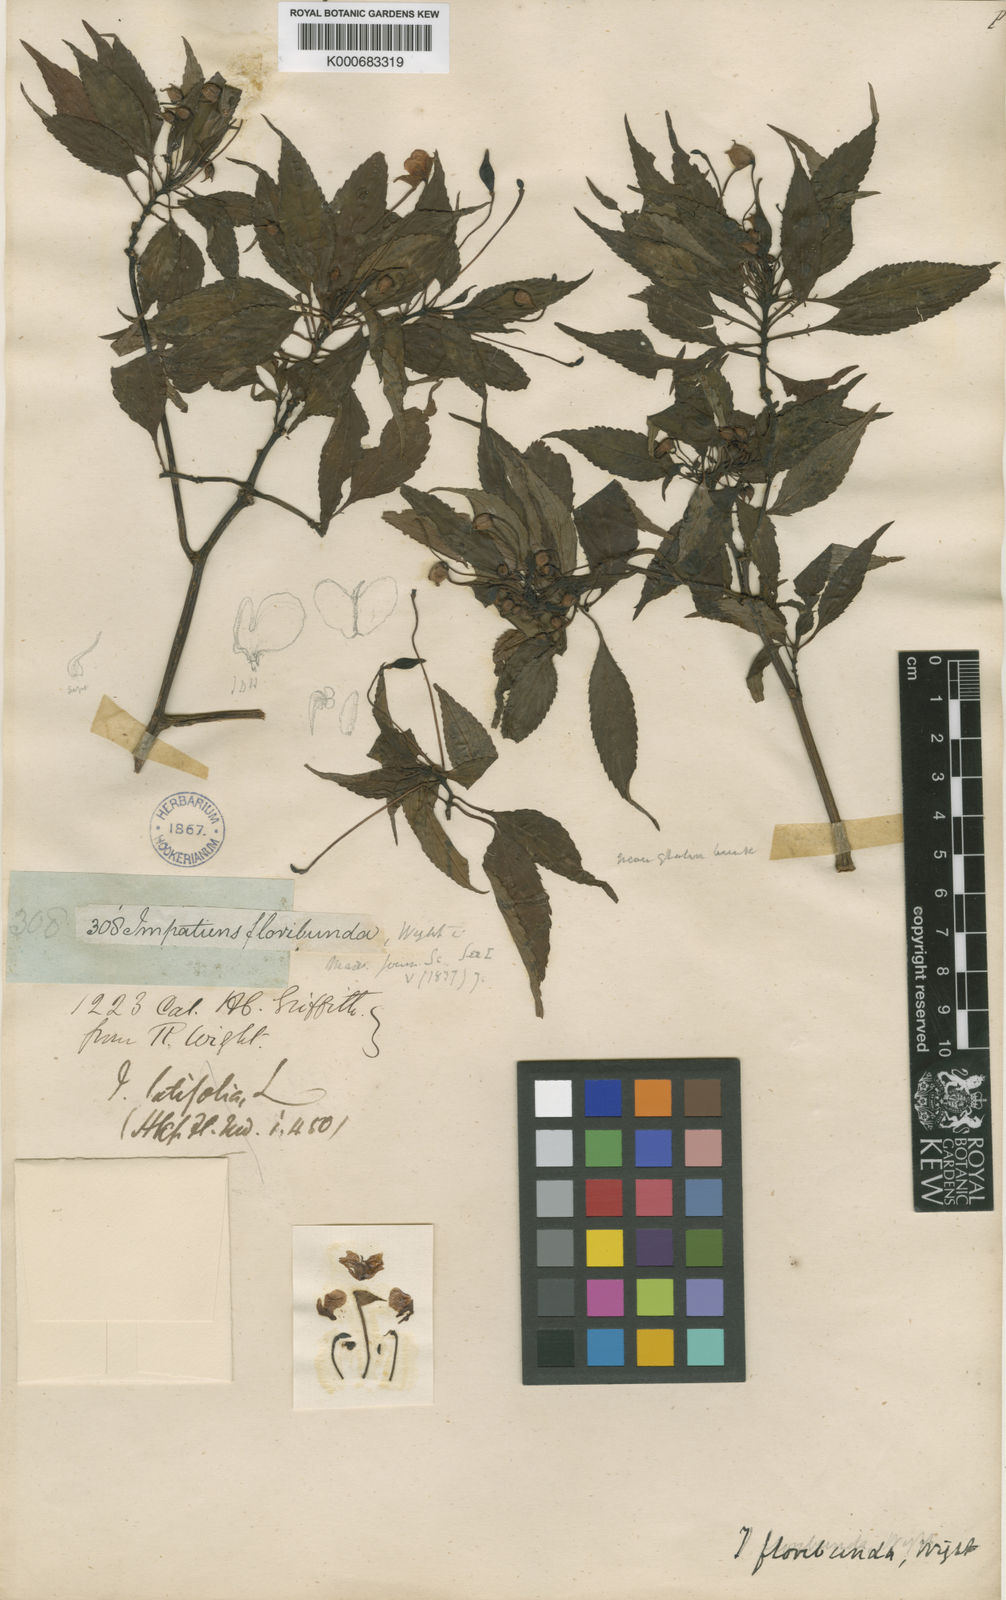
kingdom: Plantae
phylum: Tracheophyta
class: Magnoliopsida
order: Ericales
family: Balsaminaceae
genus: Impatiens
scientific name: Impatiens floribunda
